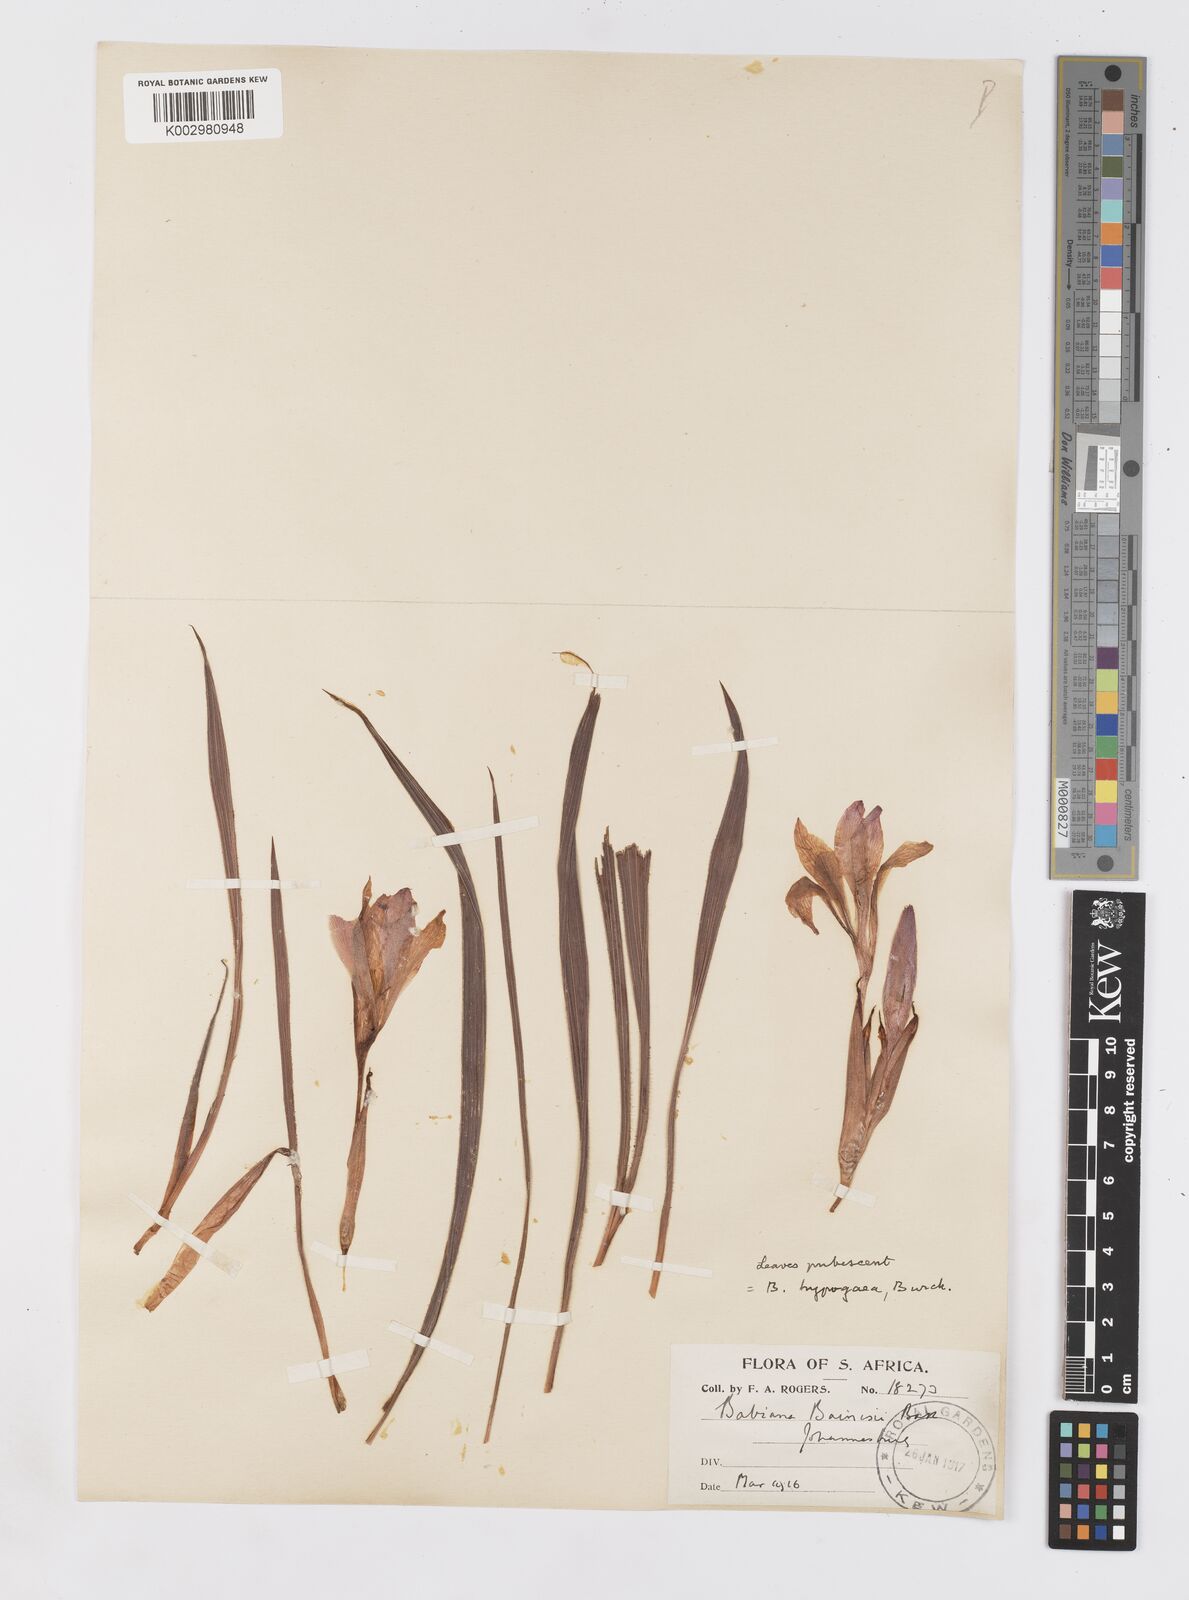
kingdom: Plantae
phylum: Tracheophyta
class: Liliopsida
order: Asparagales
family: Iridaceae
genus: Babiana
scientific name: Babiana bainesii
